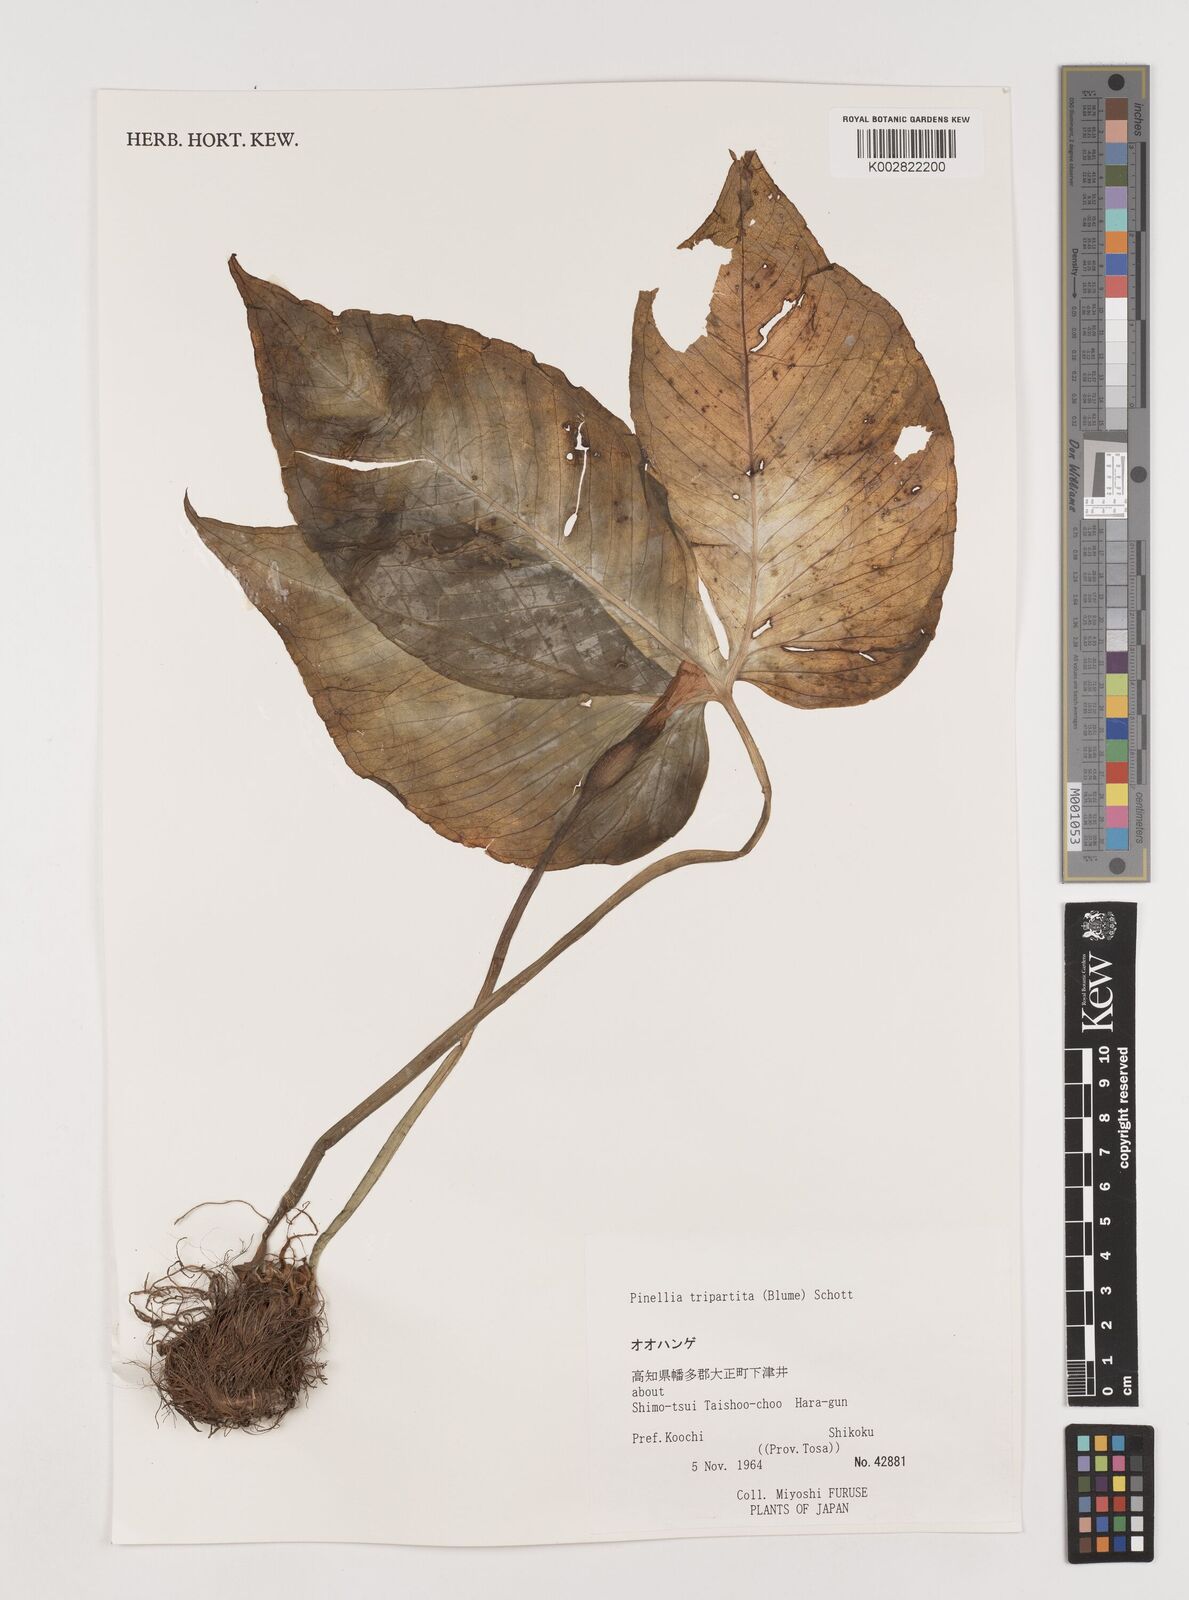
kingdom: Plantae
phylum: Tracheophyta
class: Liliopsida
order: Alismatales
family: Araceae
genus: Pinellia
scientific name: Pinellia tripartita
